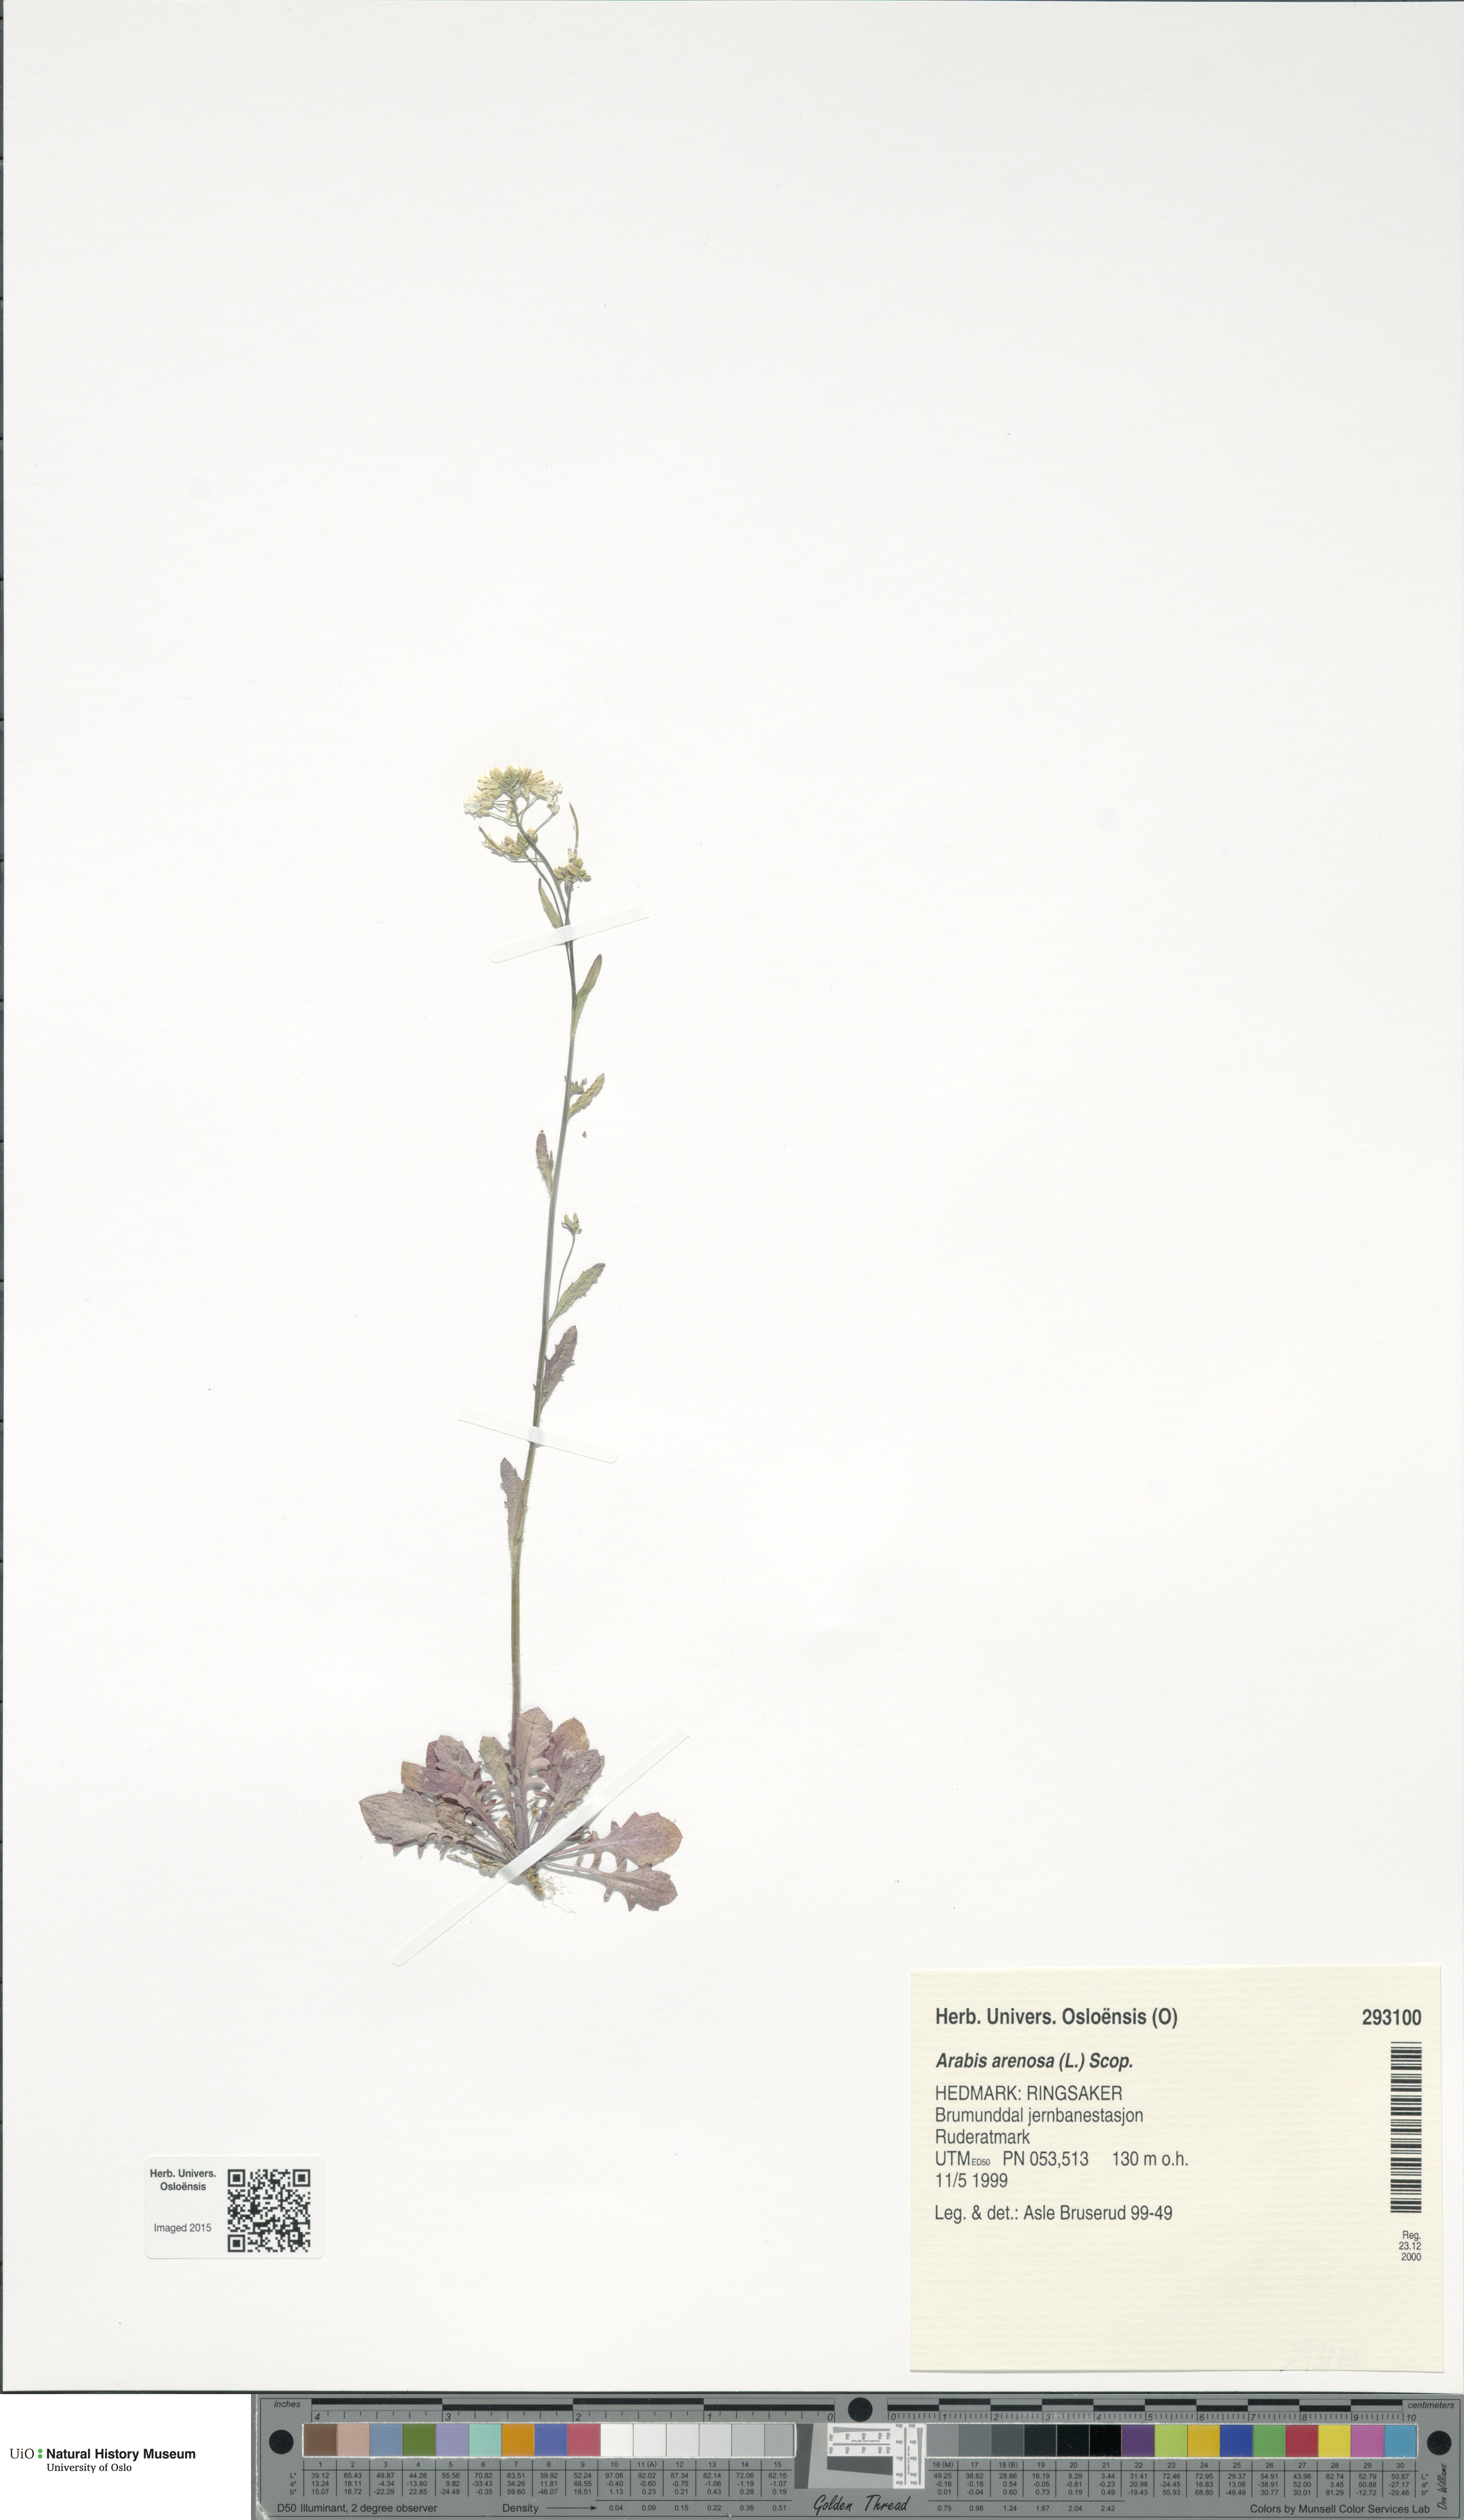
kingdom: Plantae
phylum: Tracheophyta
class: Magnoliopsida
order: Brassicales
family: Brassicaceae
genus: Arabidopsis
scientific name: Arabidopsis arenosa
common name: Sand rock-cress
